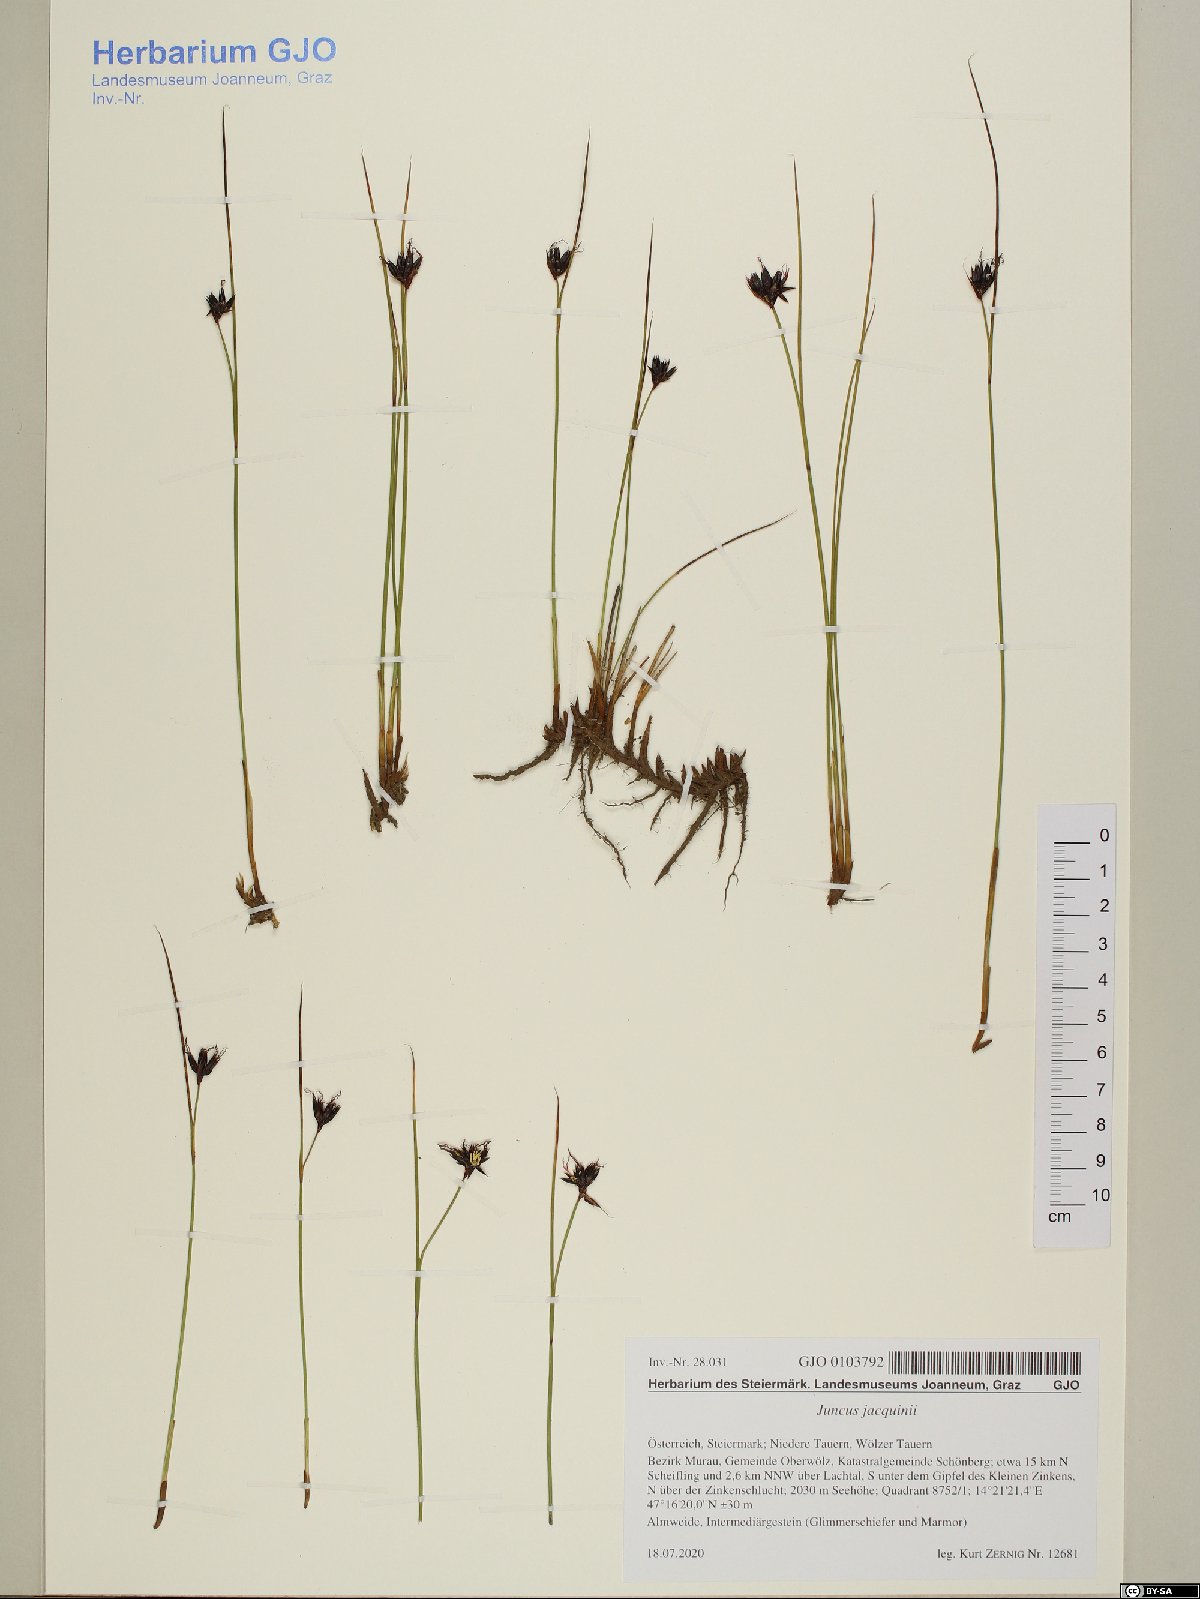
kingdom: Plantae
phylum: Tracheophyta
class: Liliopsida
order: Poales
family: Juncaceae
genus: Juncus
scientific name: Juncus jacquinii
